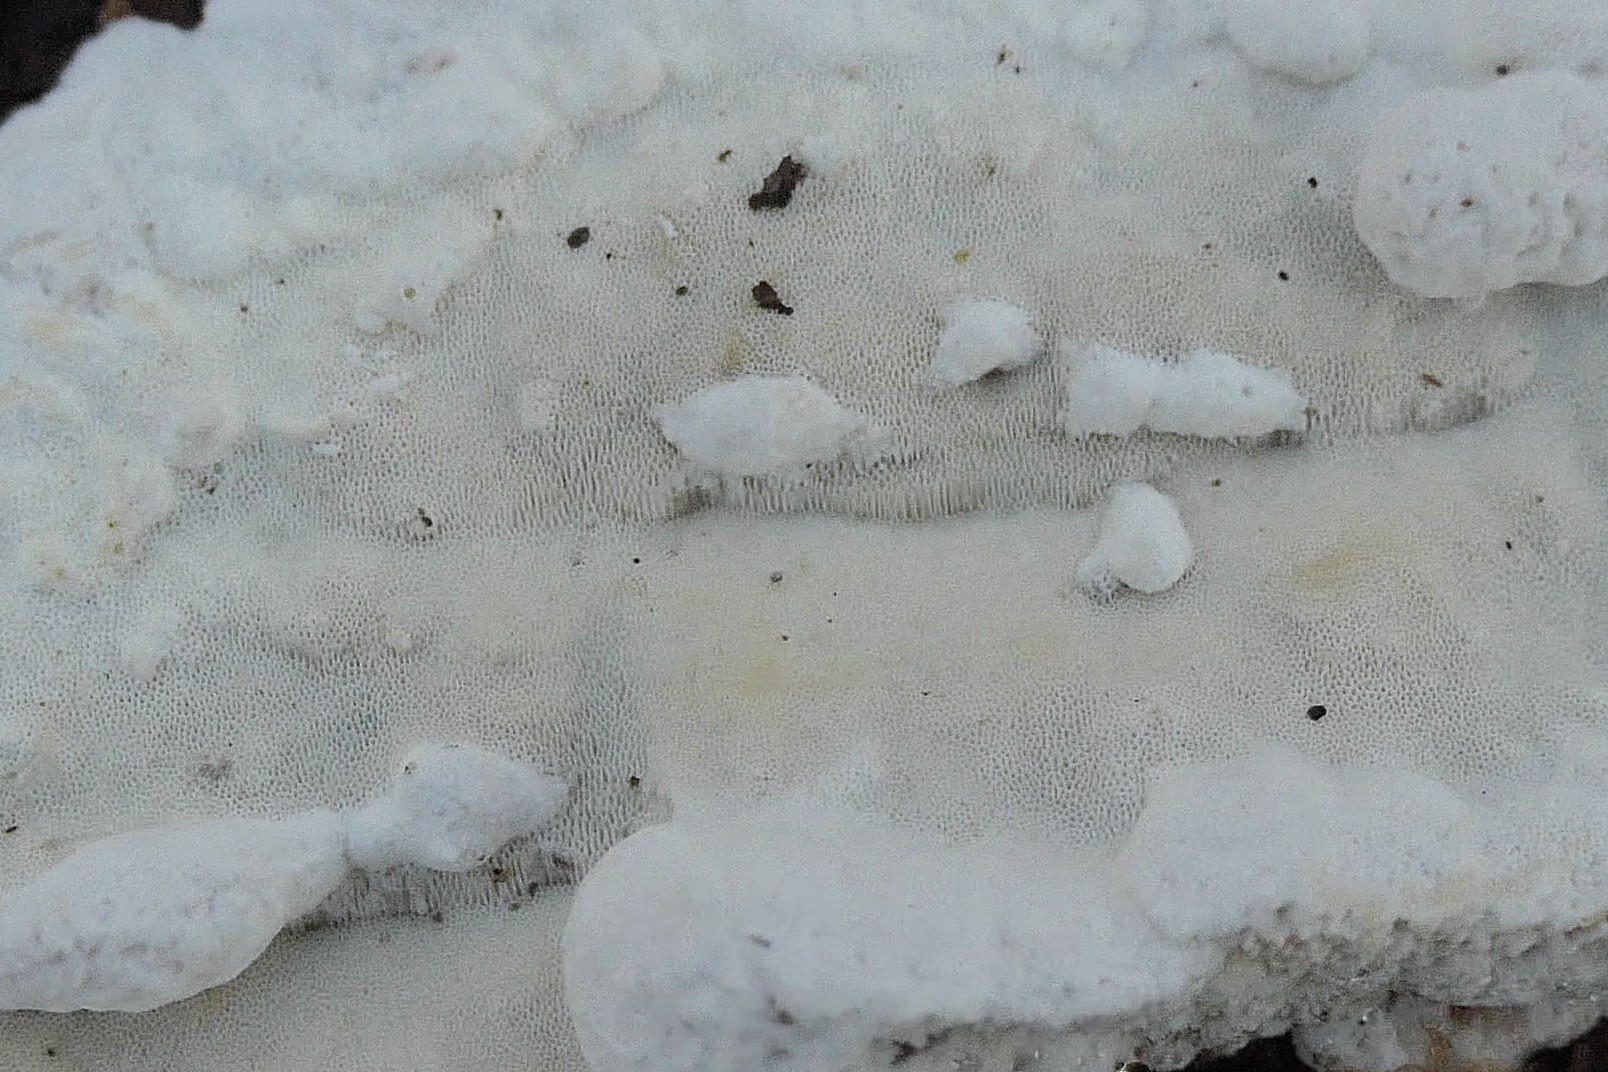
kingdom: Fungi
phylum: Basidiomycota
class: Agaricomycetes
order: Polyporales
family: Incrustoporiaceae
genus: Skeletocutis
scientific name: Skeletocutis nemoralis
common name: stor krystalporesvamp
